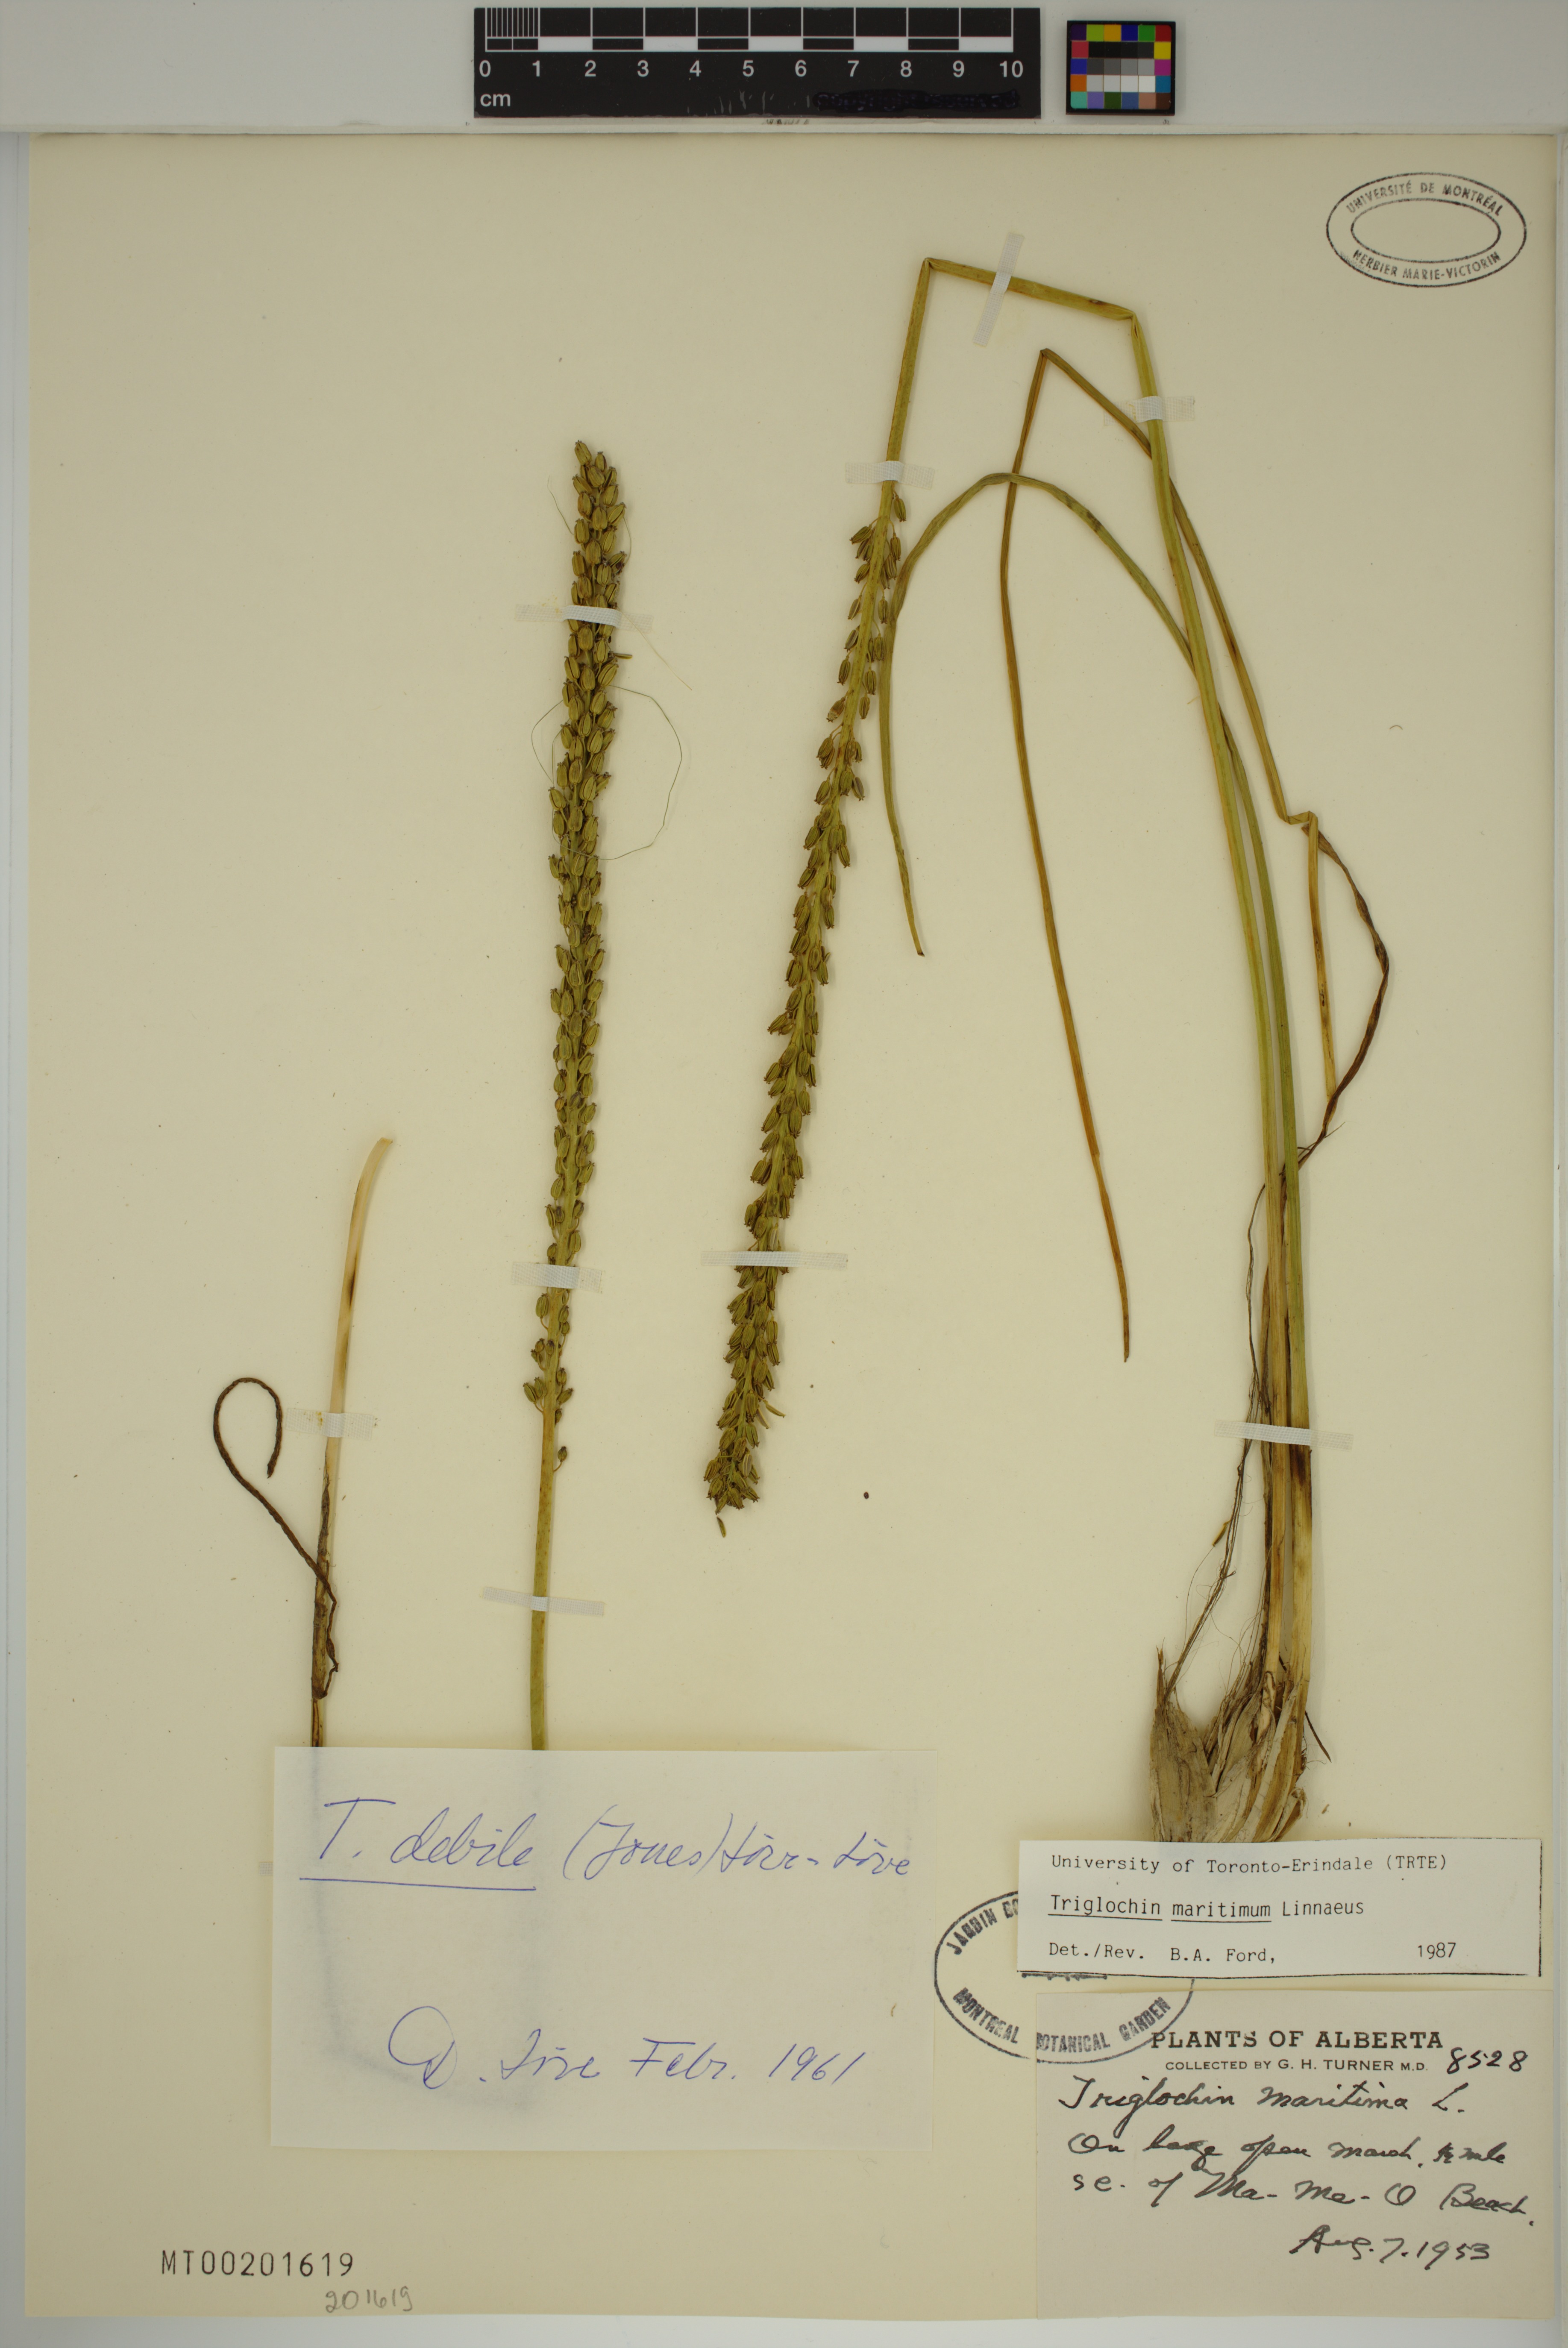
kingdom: Plantae
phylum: Tracheophyta
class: Liliopsida
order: Alismatales
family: Juncaginaceae
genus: Triglochin
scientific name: Triglochin maritima
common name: Sea arrowgrass
